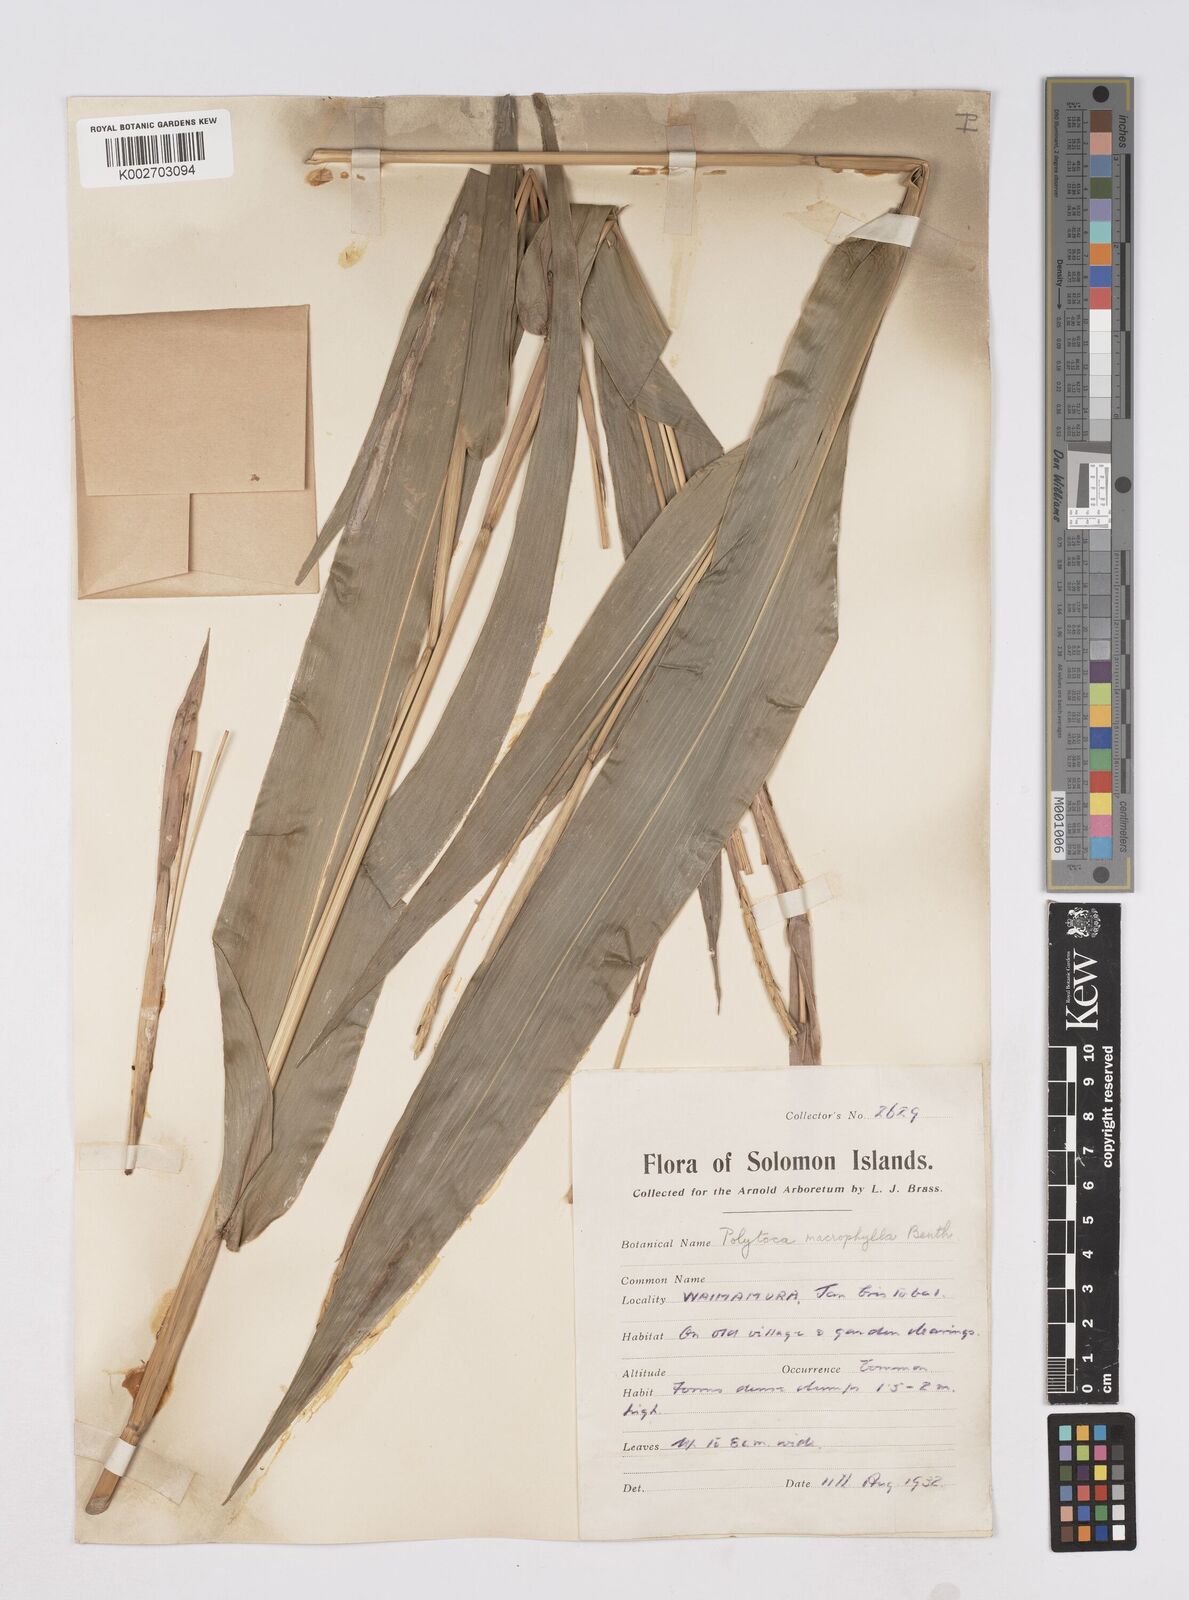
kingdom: Plantae
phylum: Tracheophyta
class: Liliopsida
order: Poales
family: Poaceae
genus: Polytoca
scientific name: Polytoca macrophylla
